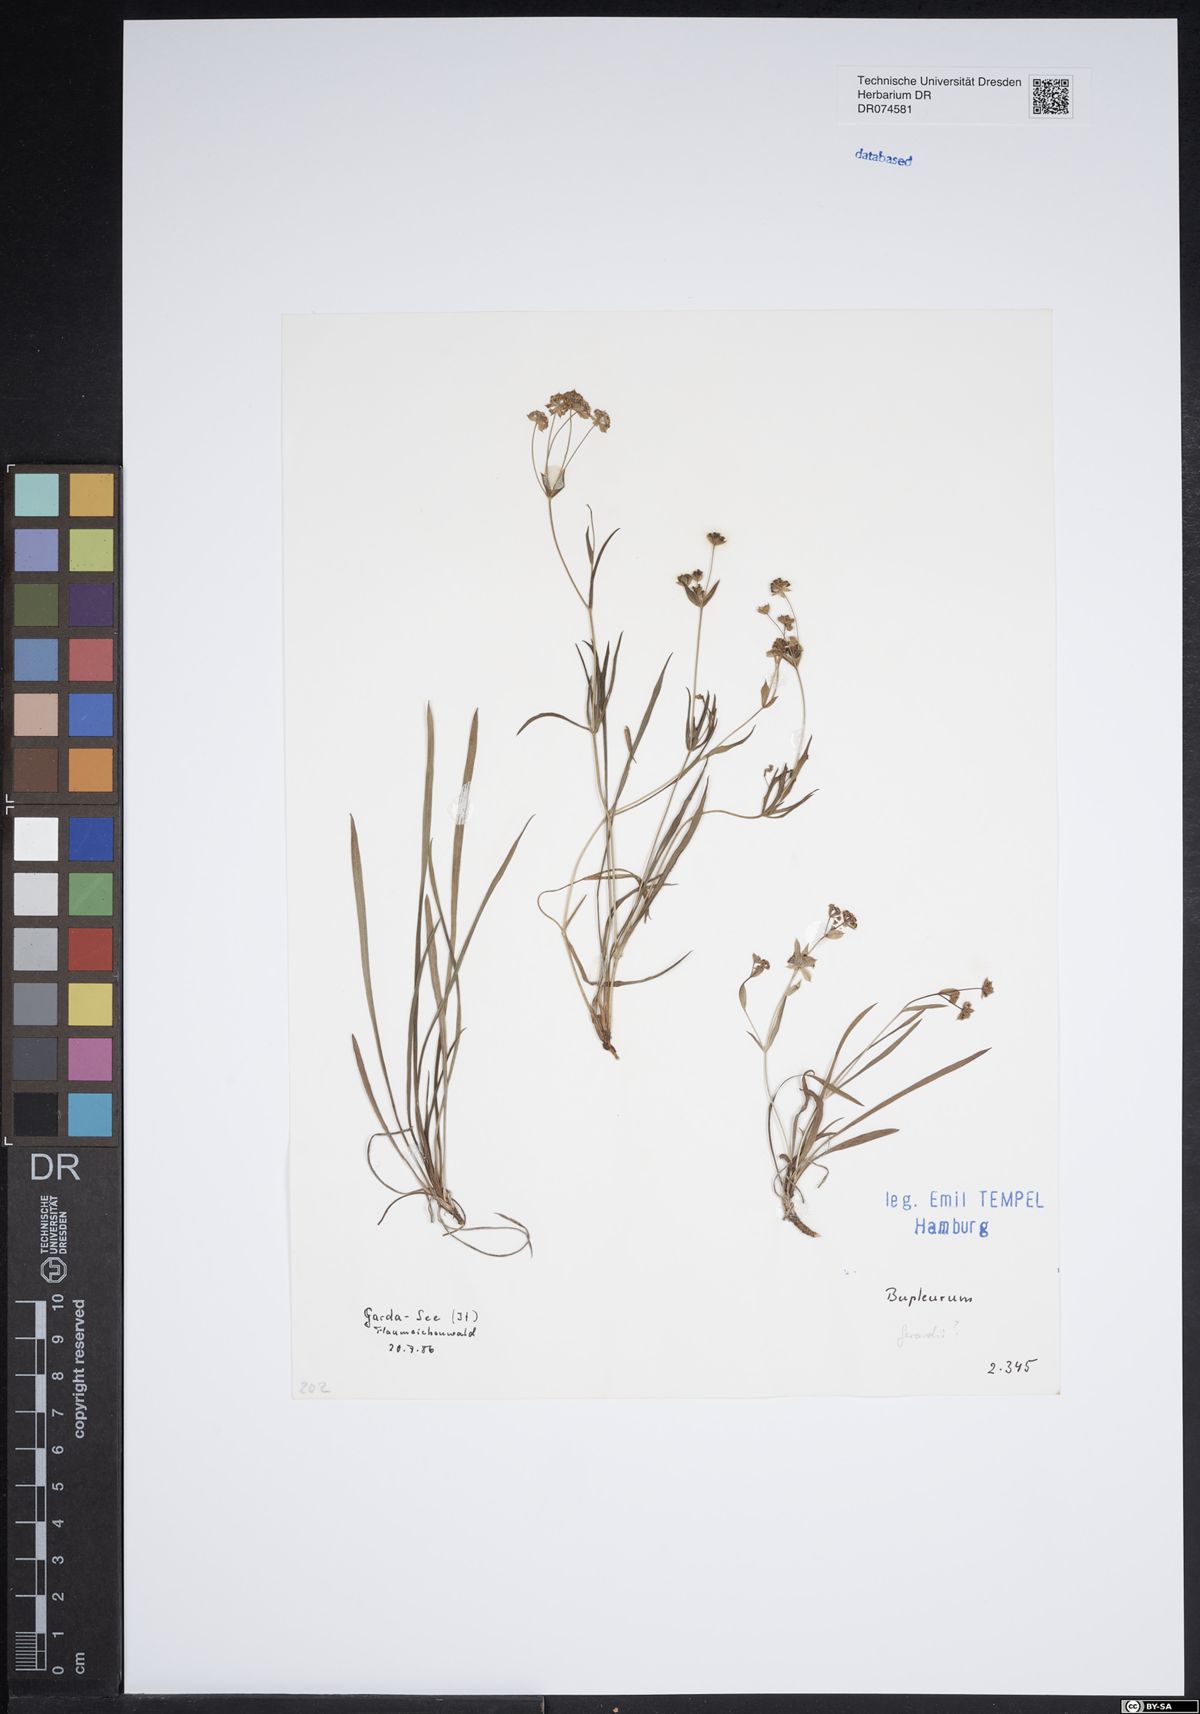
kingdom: Plantae
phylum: Tracheophyta
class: Magnoliopsida
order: Apiales
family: Apiaceae
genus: Bupleurum
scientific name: Bupleurum gerardi
